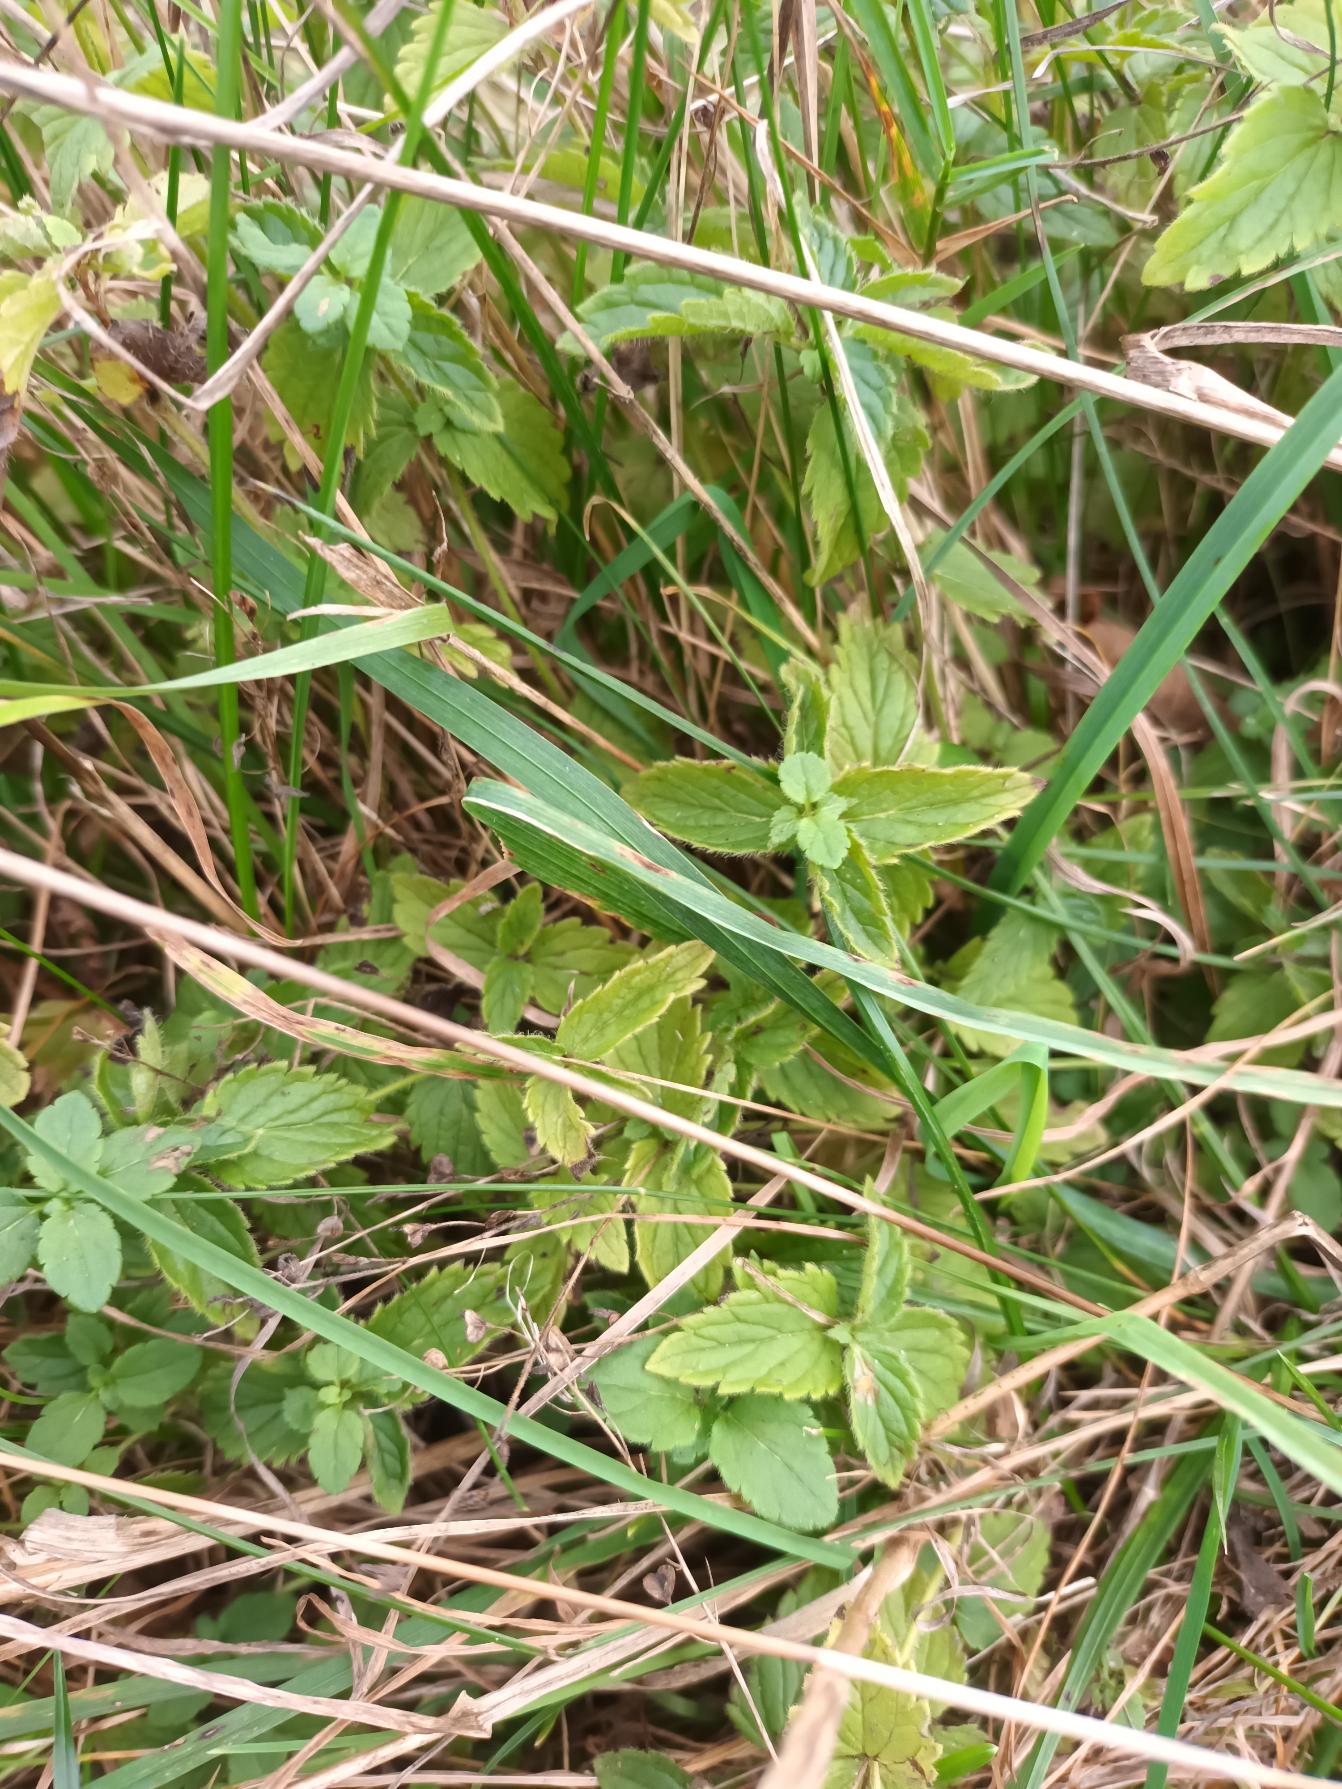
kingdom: Plantae
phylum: Tracheophyta
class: Magnoliopsida
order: Lamiales
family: Plantaginaceae
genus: Veronica
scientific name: Veronica chamaedrys
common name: Tveskægget ærenpris
